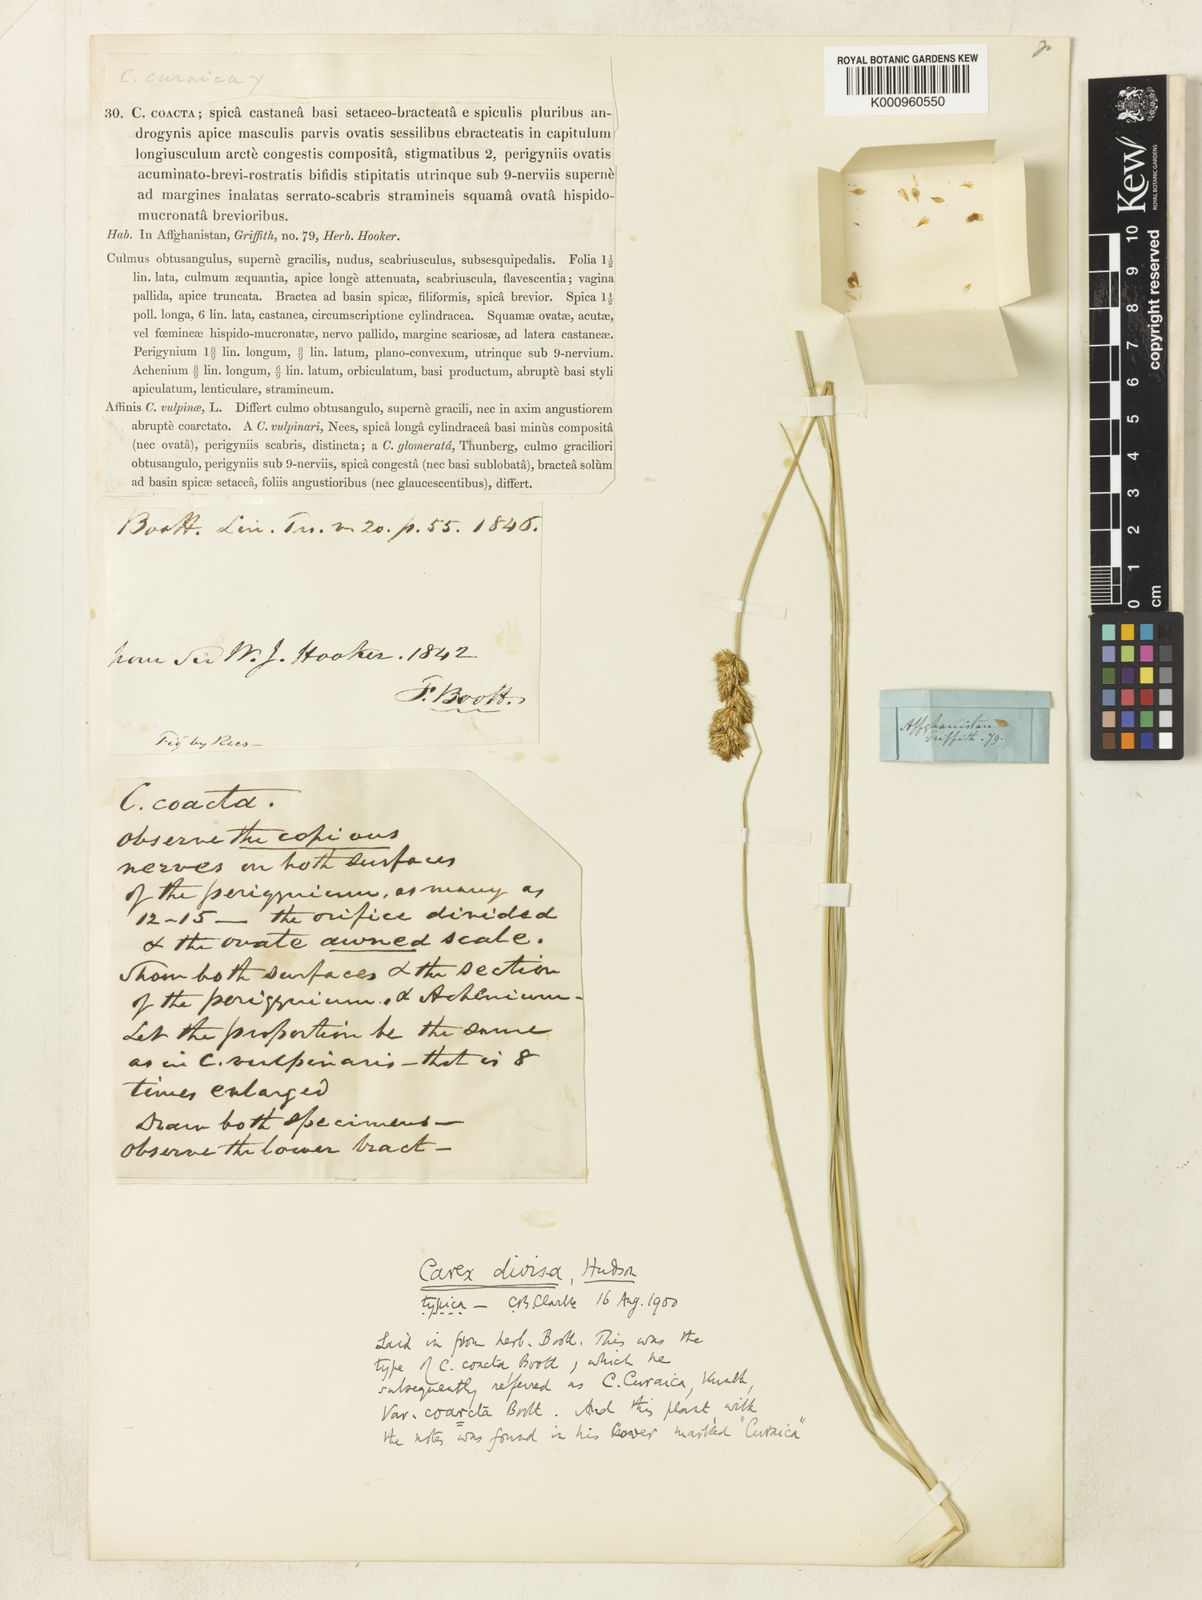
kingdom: Plantae
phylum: Tracheophyta
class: Liliopsida
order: Poales
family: Cyperaceae
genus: Carex
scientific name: Carex divisa
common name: Divided sedge
